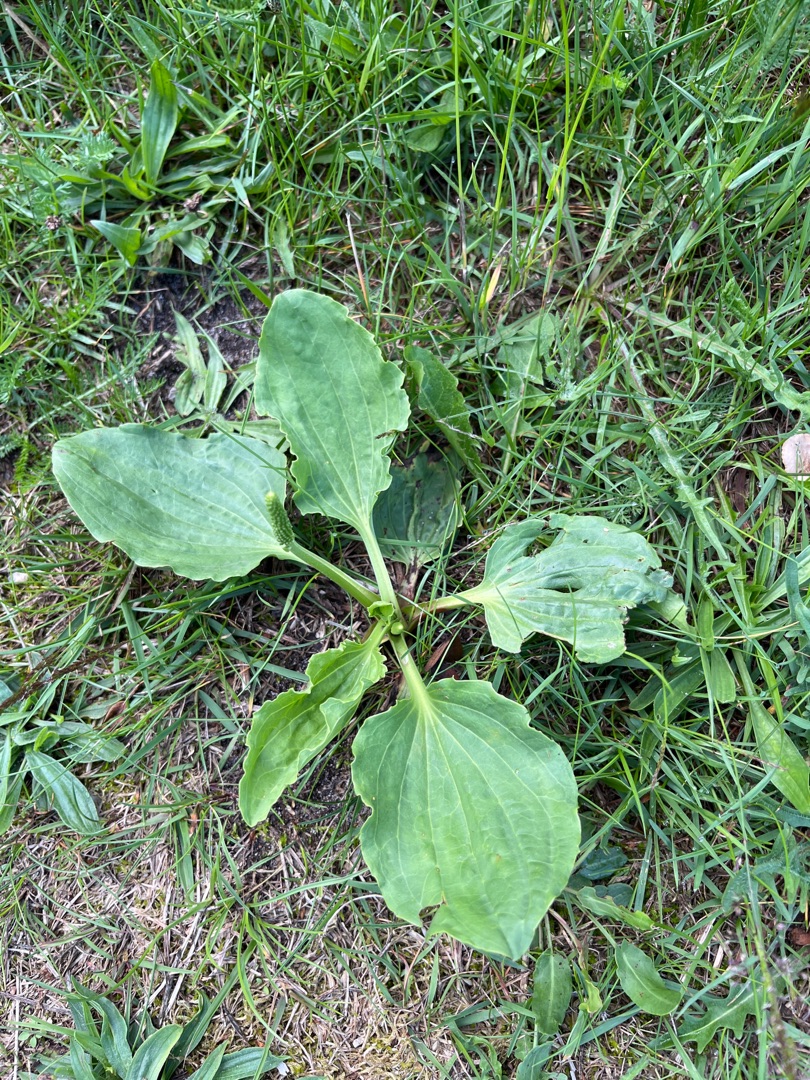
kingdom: Plantae
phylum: Tracheophyta
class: Magnoliopsida
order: Lamiales
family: Plantaginaceae
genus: Plantago
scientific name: Plantago major
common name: Glat vejbred
